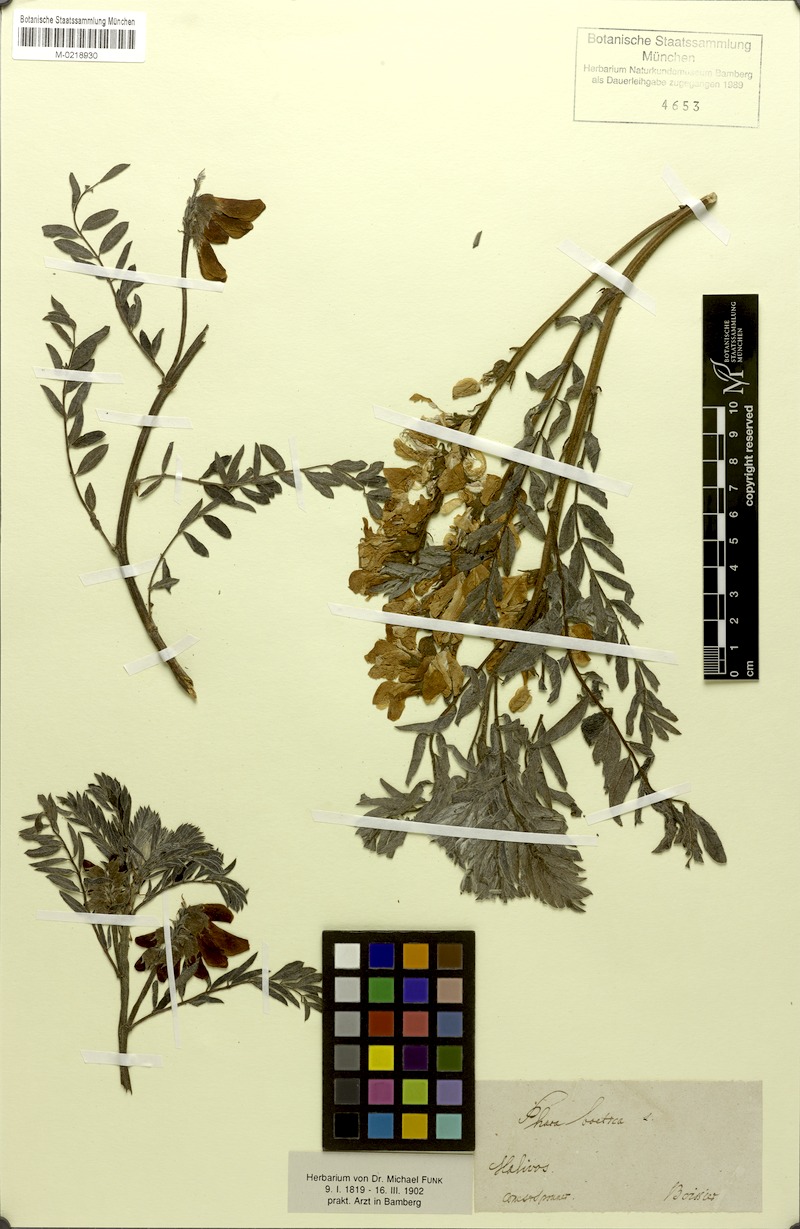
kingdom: Plantae
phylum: Tracheophyta
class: Magnoliopsida
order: Fabales
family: Fabaceae
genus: Erophaca
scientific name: Erophaca baetica
